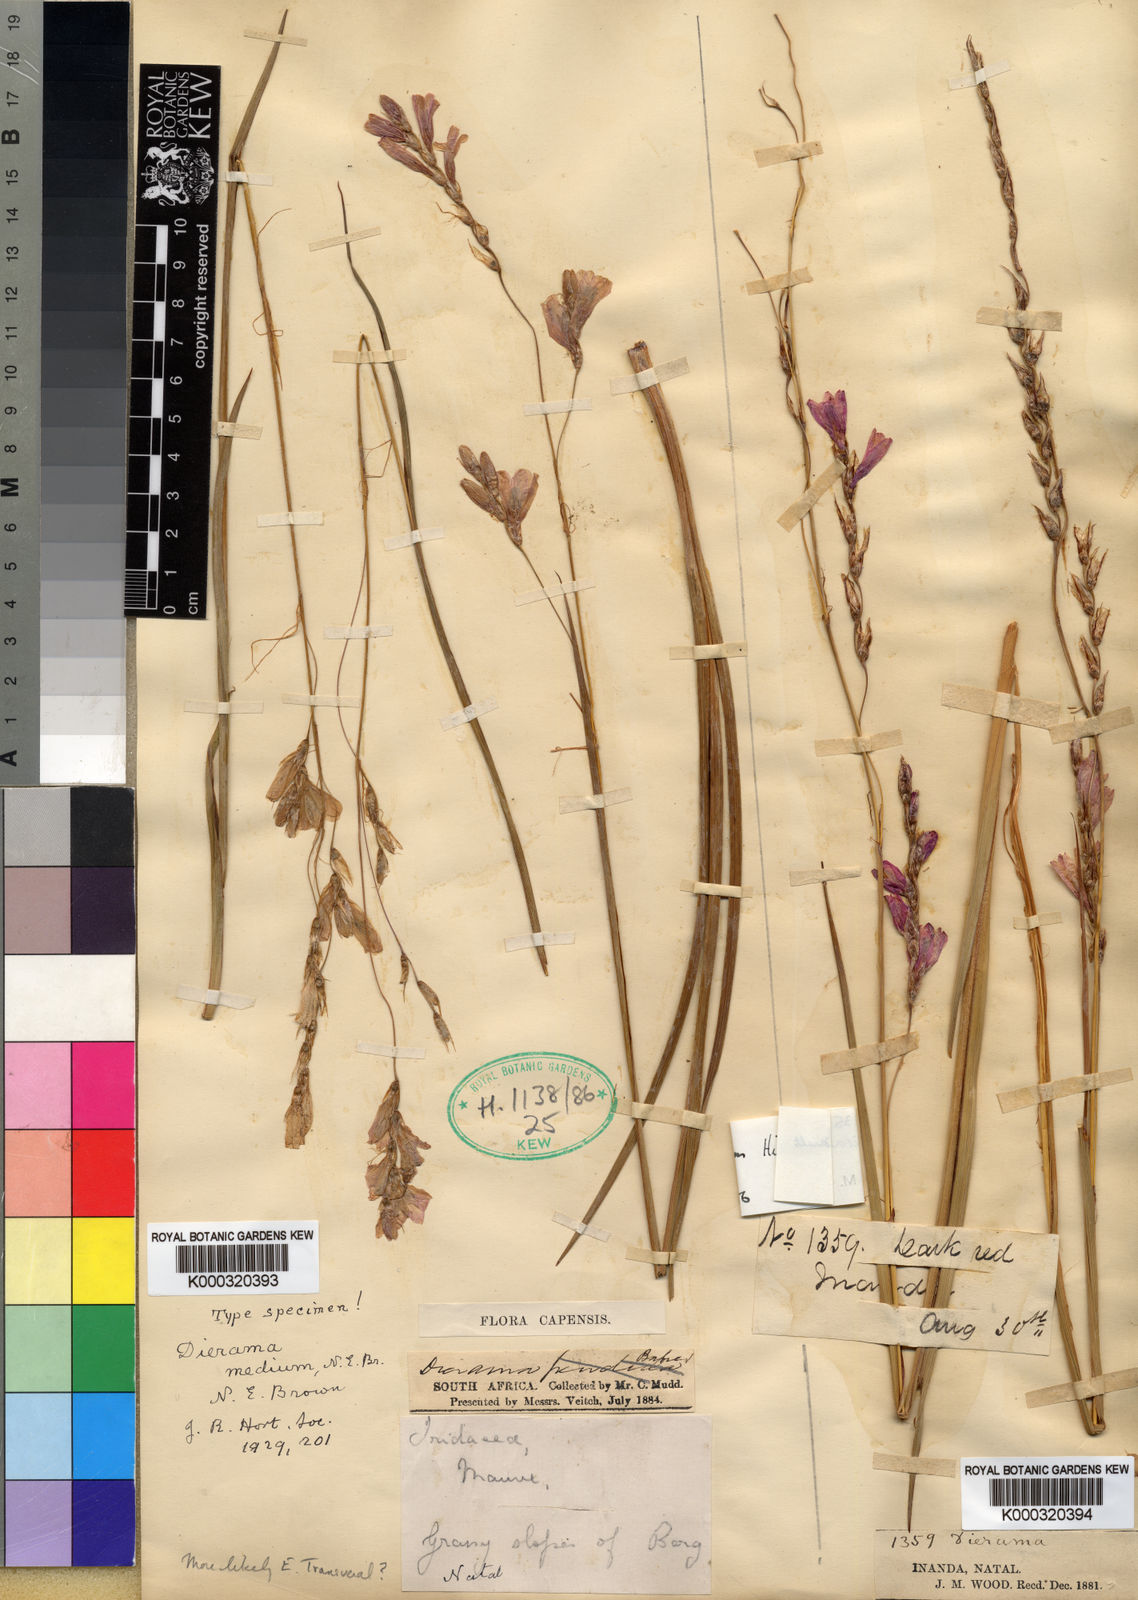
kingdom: Plantae
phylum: Tracheophyta
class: Liliopsida
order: Asparagales
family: Iridaceae
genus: Dierama
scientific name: Dierama medium
